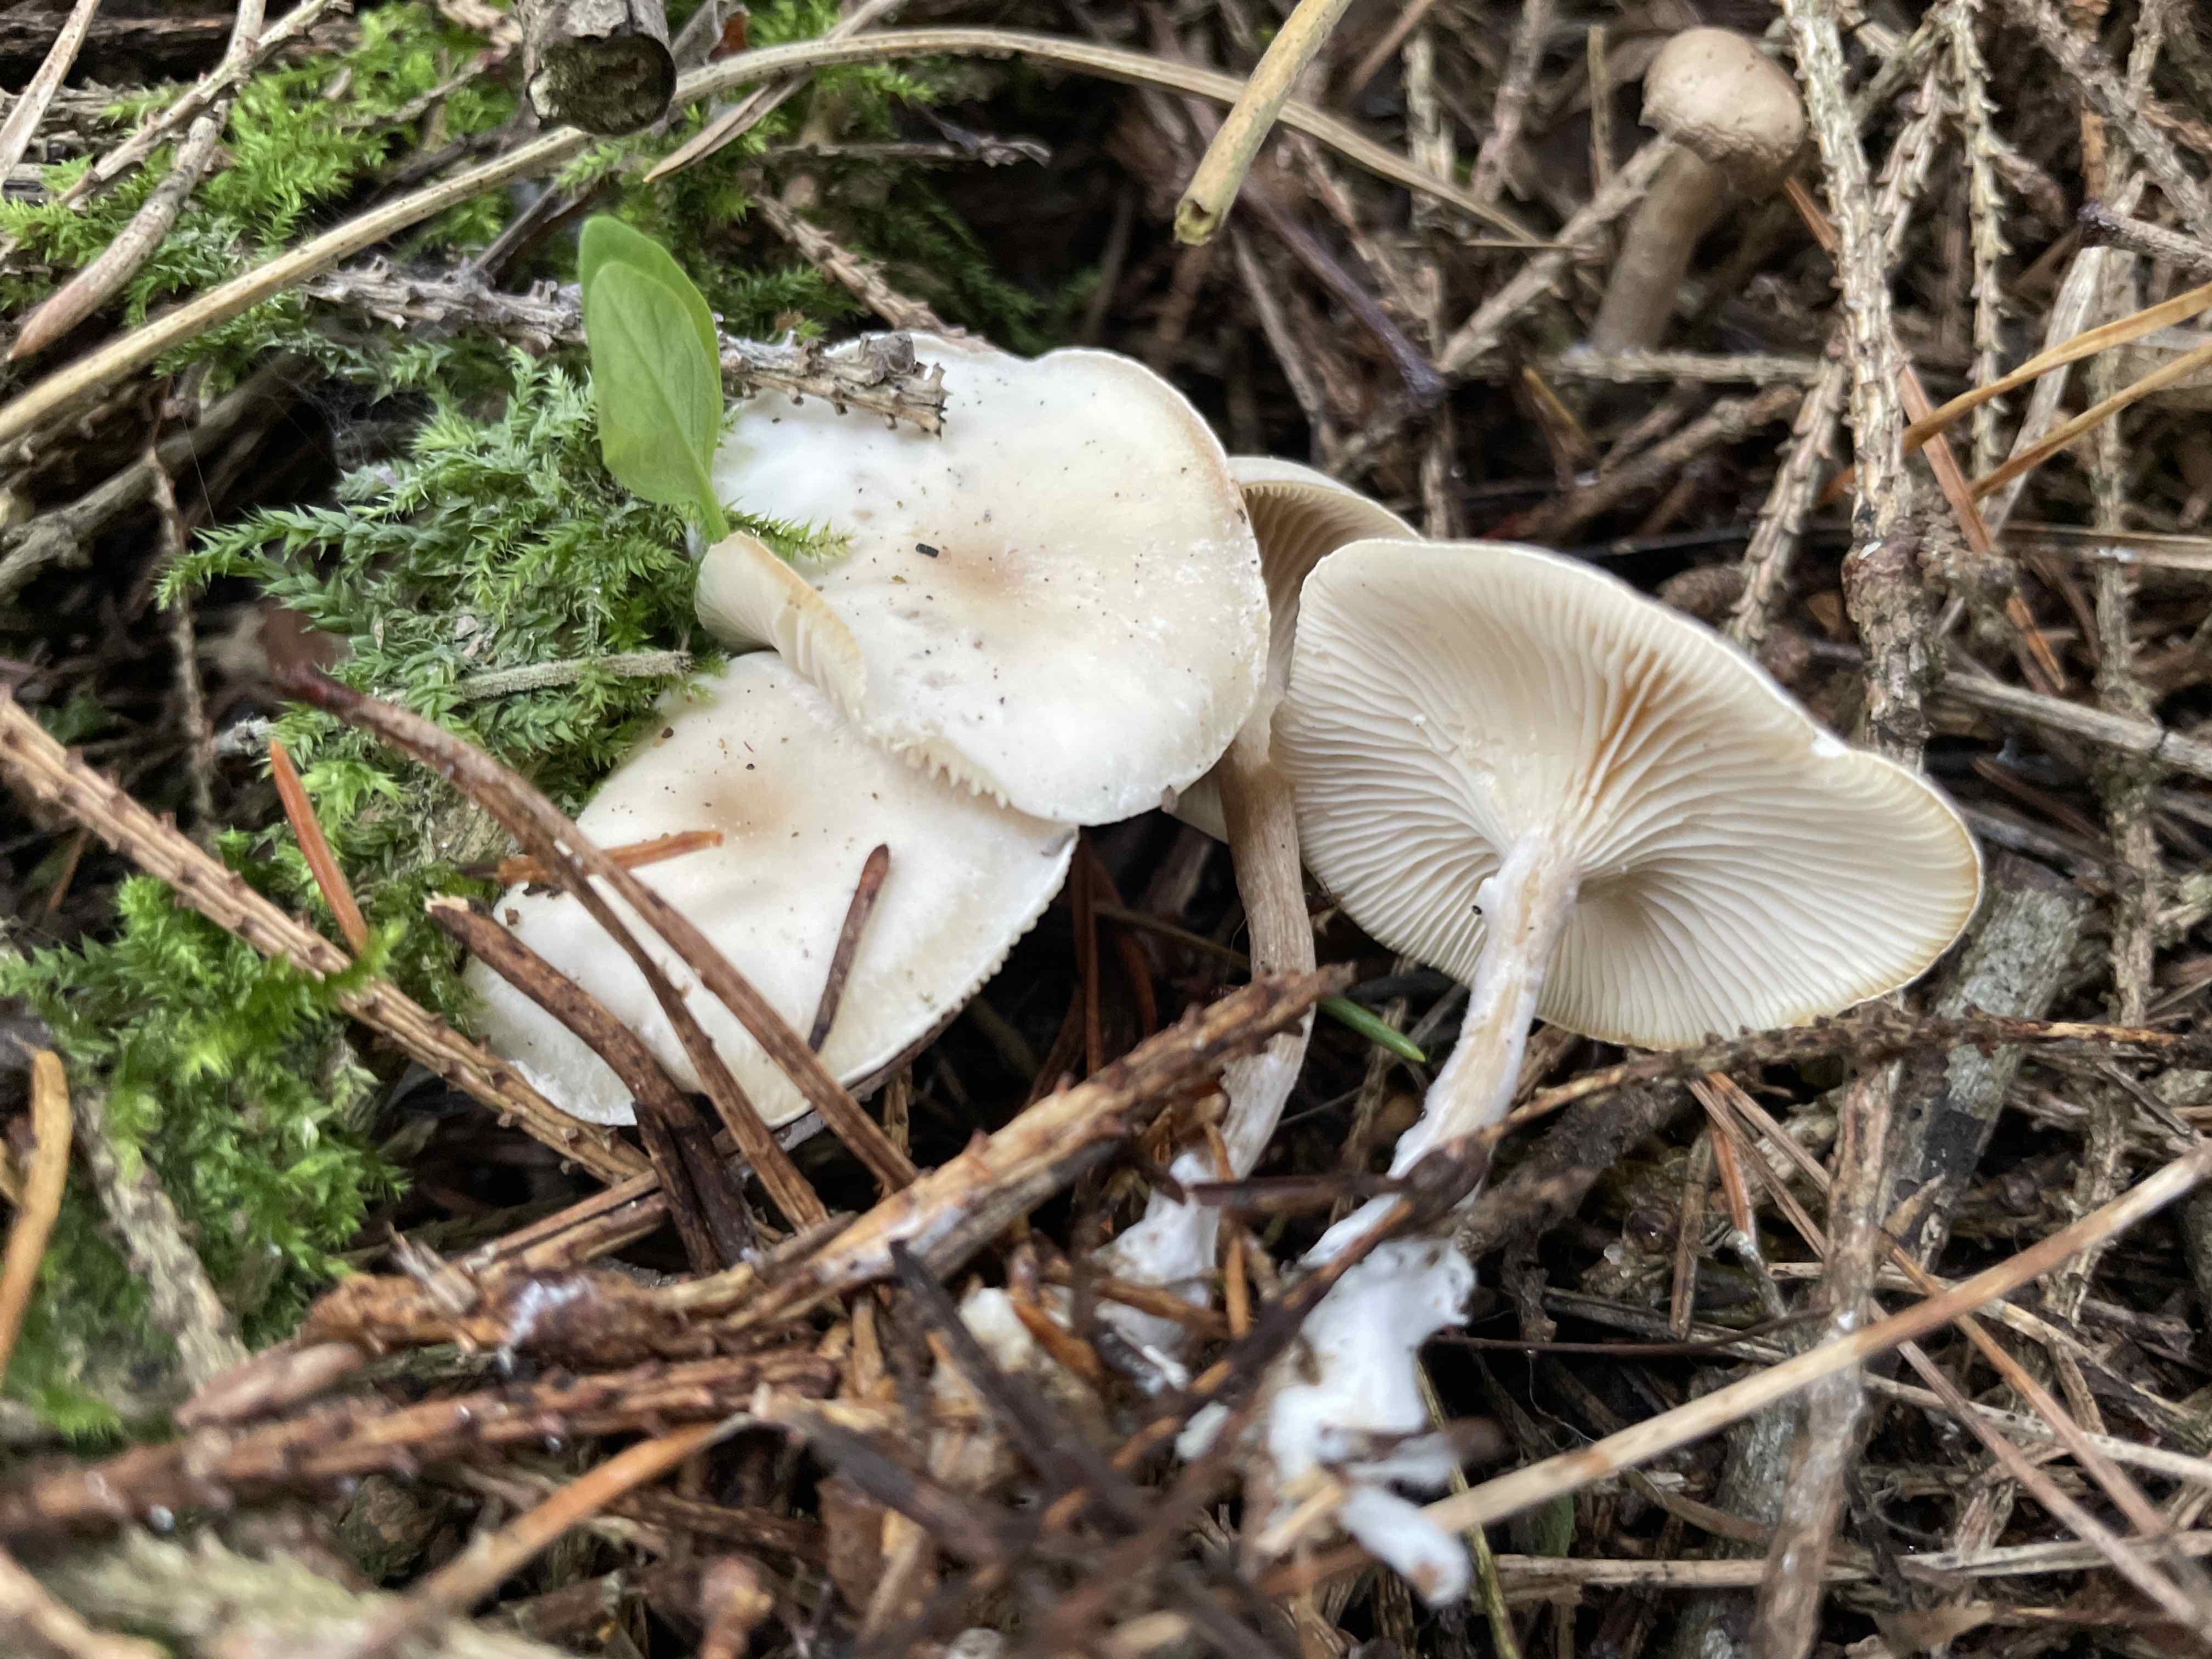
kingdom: Fungi
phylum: Basidiomycota
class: Agaricomycetes
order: Agaricales
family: Tricholomataceae
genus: Clitocybe
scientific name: Clitocybe metachroa
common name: grå tragthat
